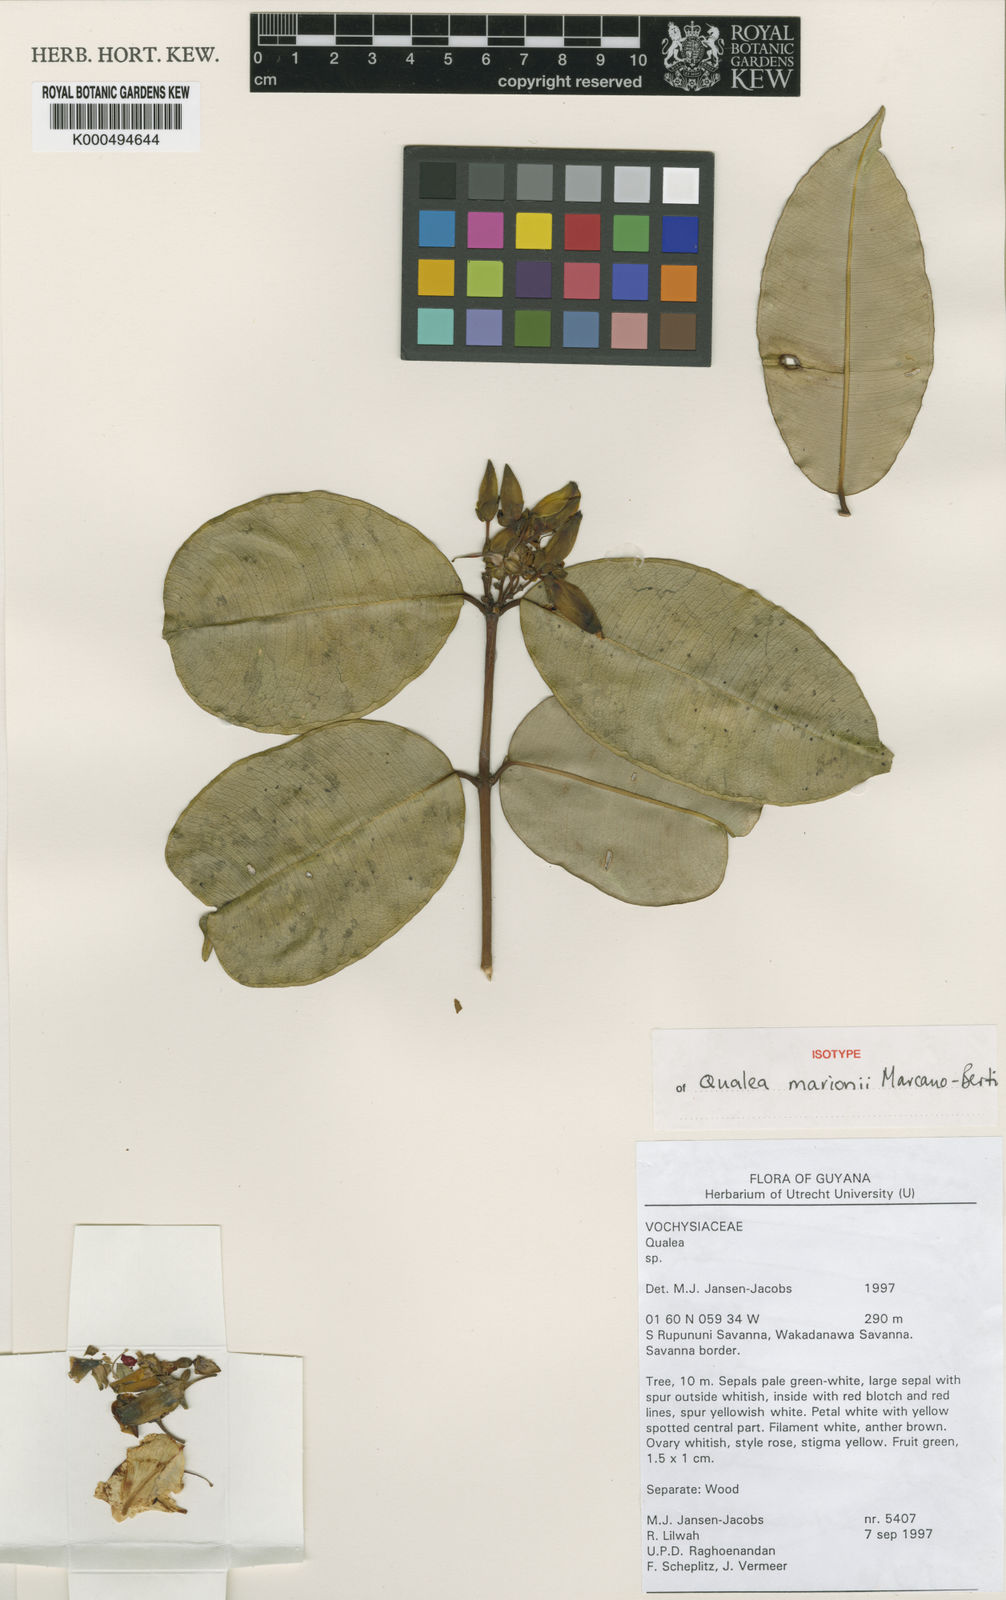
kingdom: Plantae
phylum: Tracheophyta
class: Magnoliopsida
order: Myrtales
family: Vochysiaceae
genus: Qualea
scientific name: Qualea marioniae
